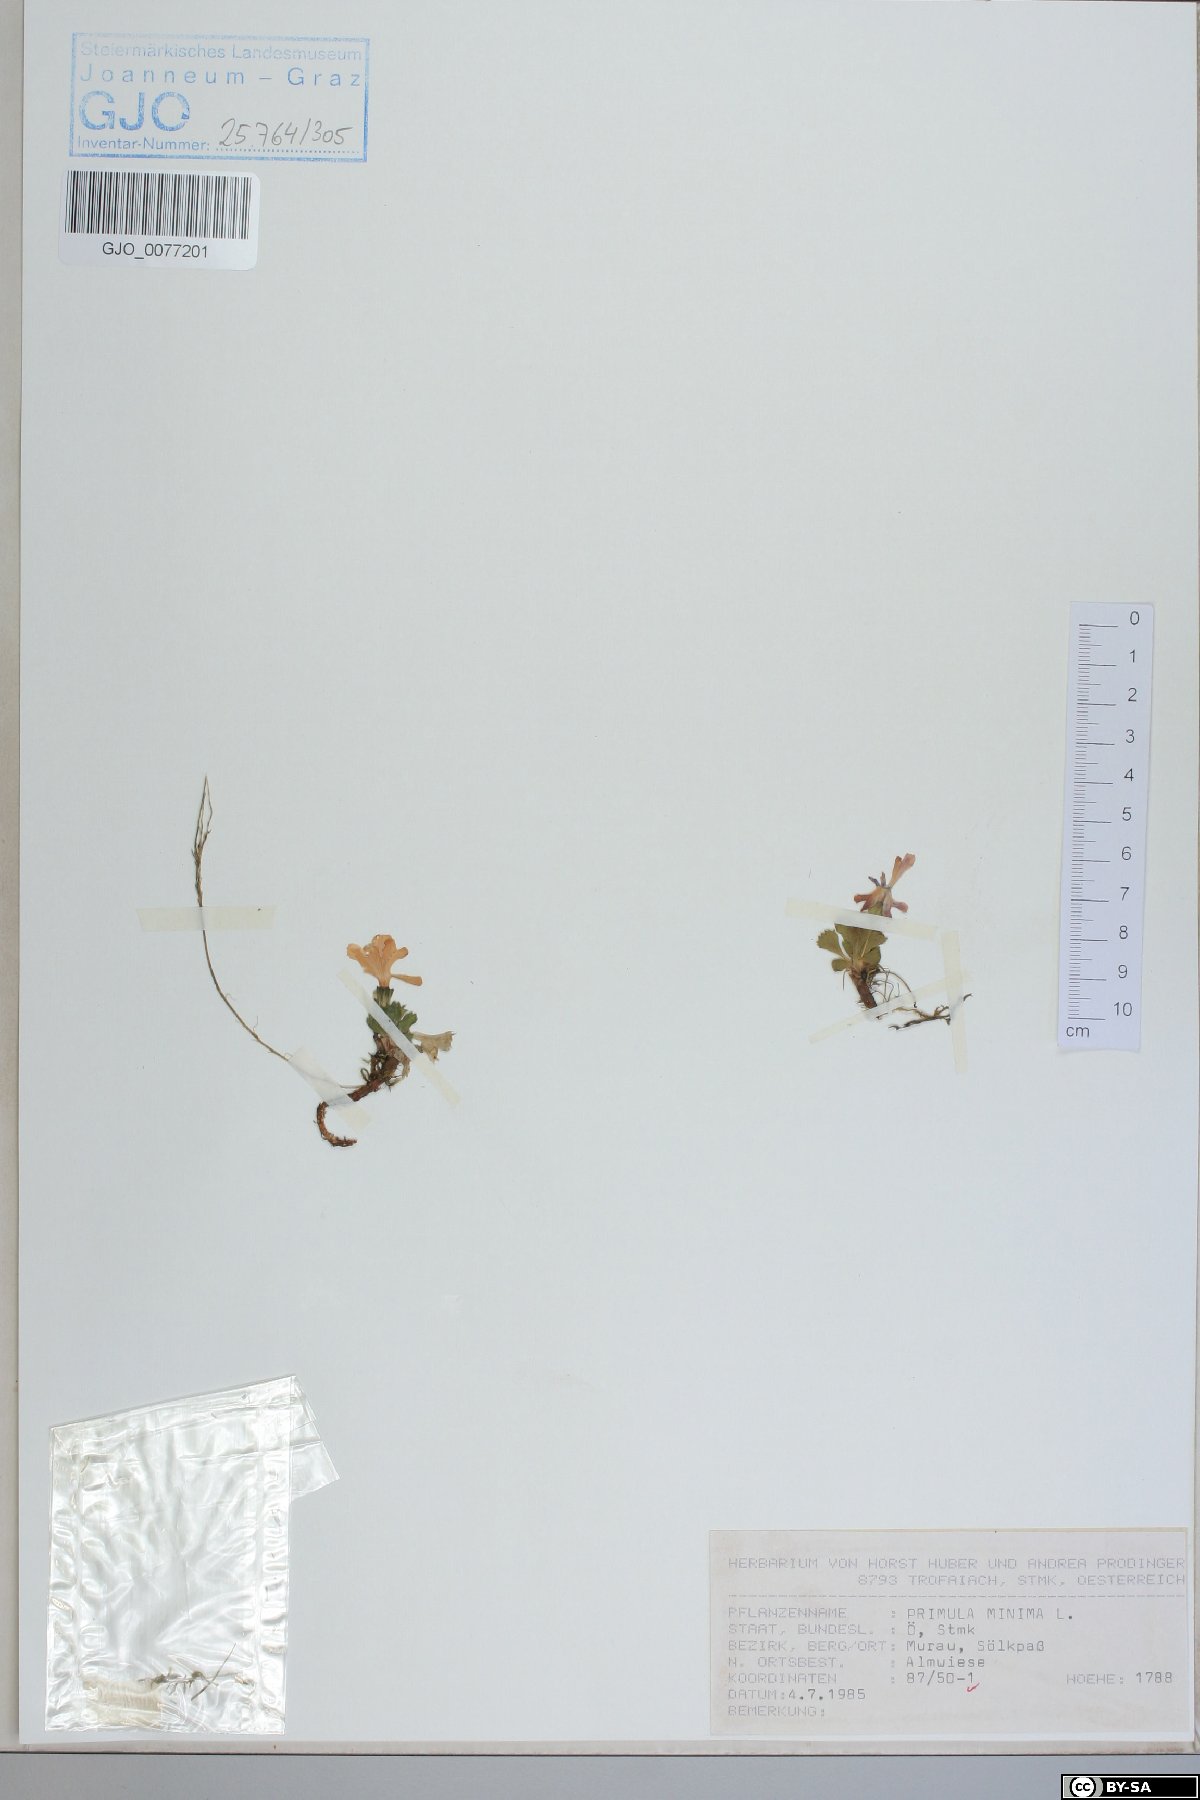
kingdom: Plantae
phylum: Tracheophyta
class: Magnoliopsida
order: Ericales
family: Primulaceae
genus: Primula
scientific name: Primula minima
